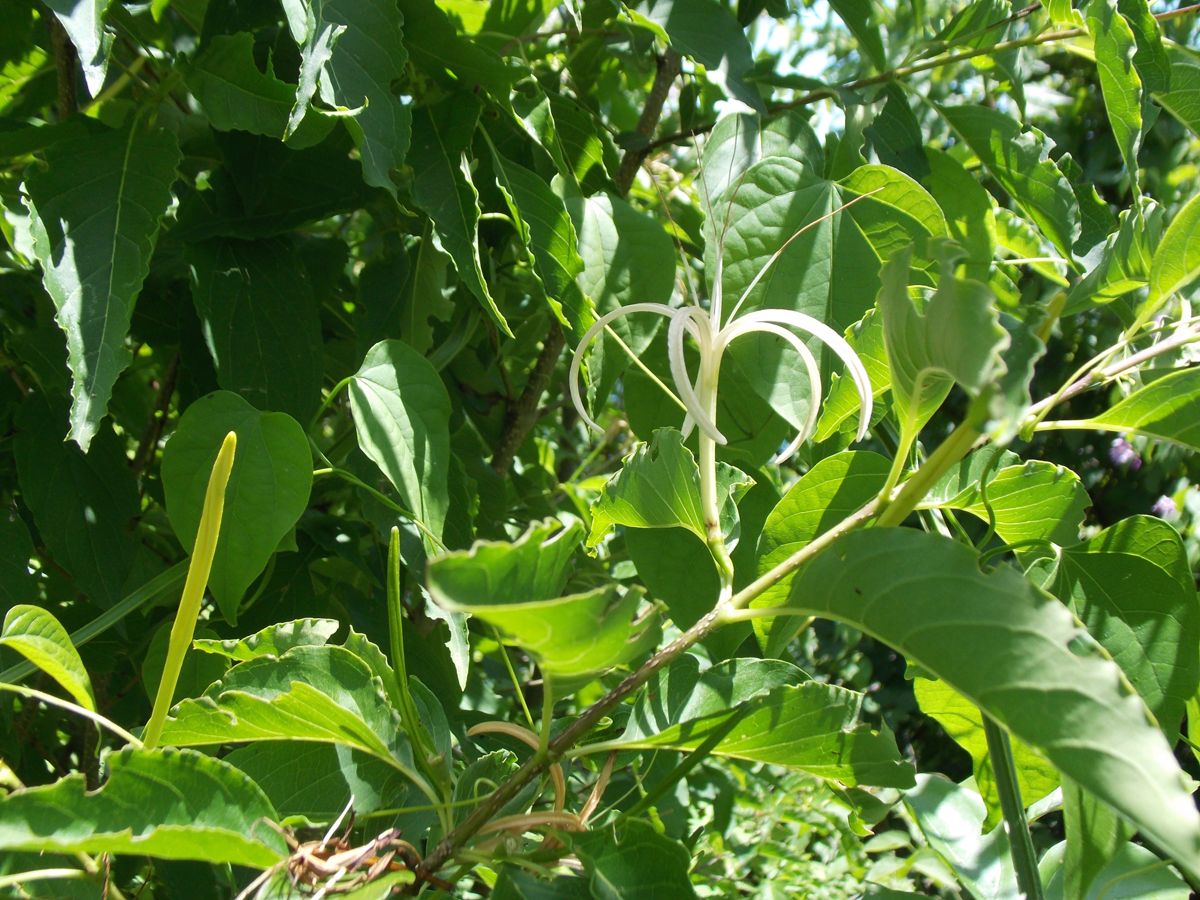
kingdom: Plantae
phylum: Tracheophyta
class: Magnoliopsida
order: Gentianales
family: Rubiaceae
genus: Exostema
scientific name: Exostema caribaeum
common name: Princewood
